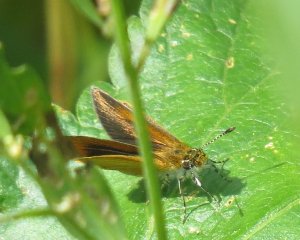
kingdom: Animalia
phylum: Arthropoda
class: Insecta
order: Lepidoptera
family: Hesperiidae
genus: Ancyloxypha
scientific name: Ancyloxypha numitor
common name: Least Skipper
